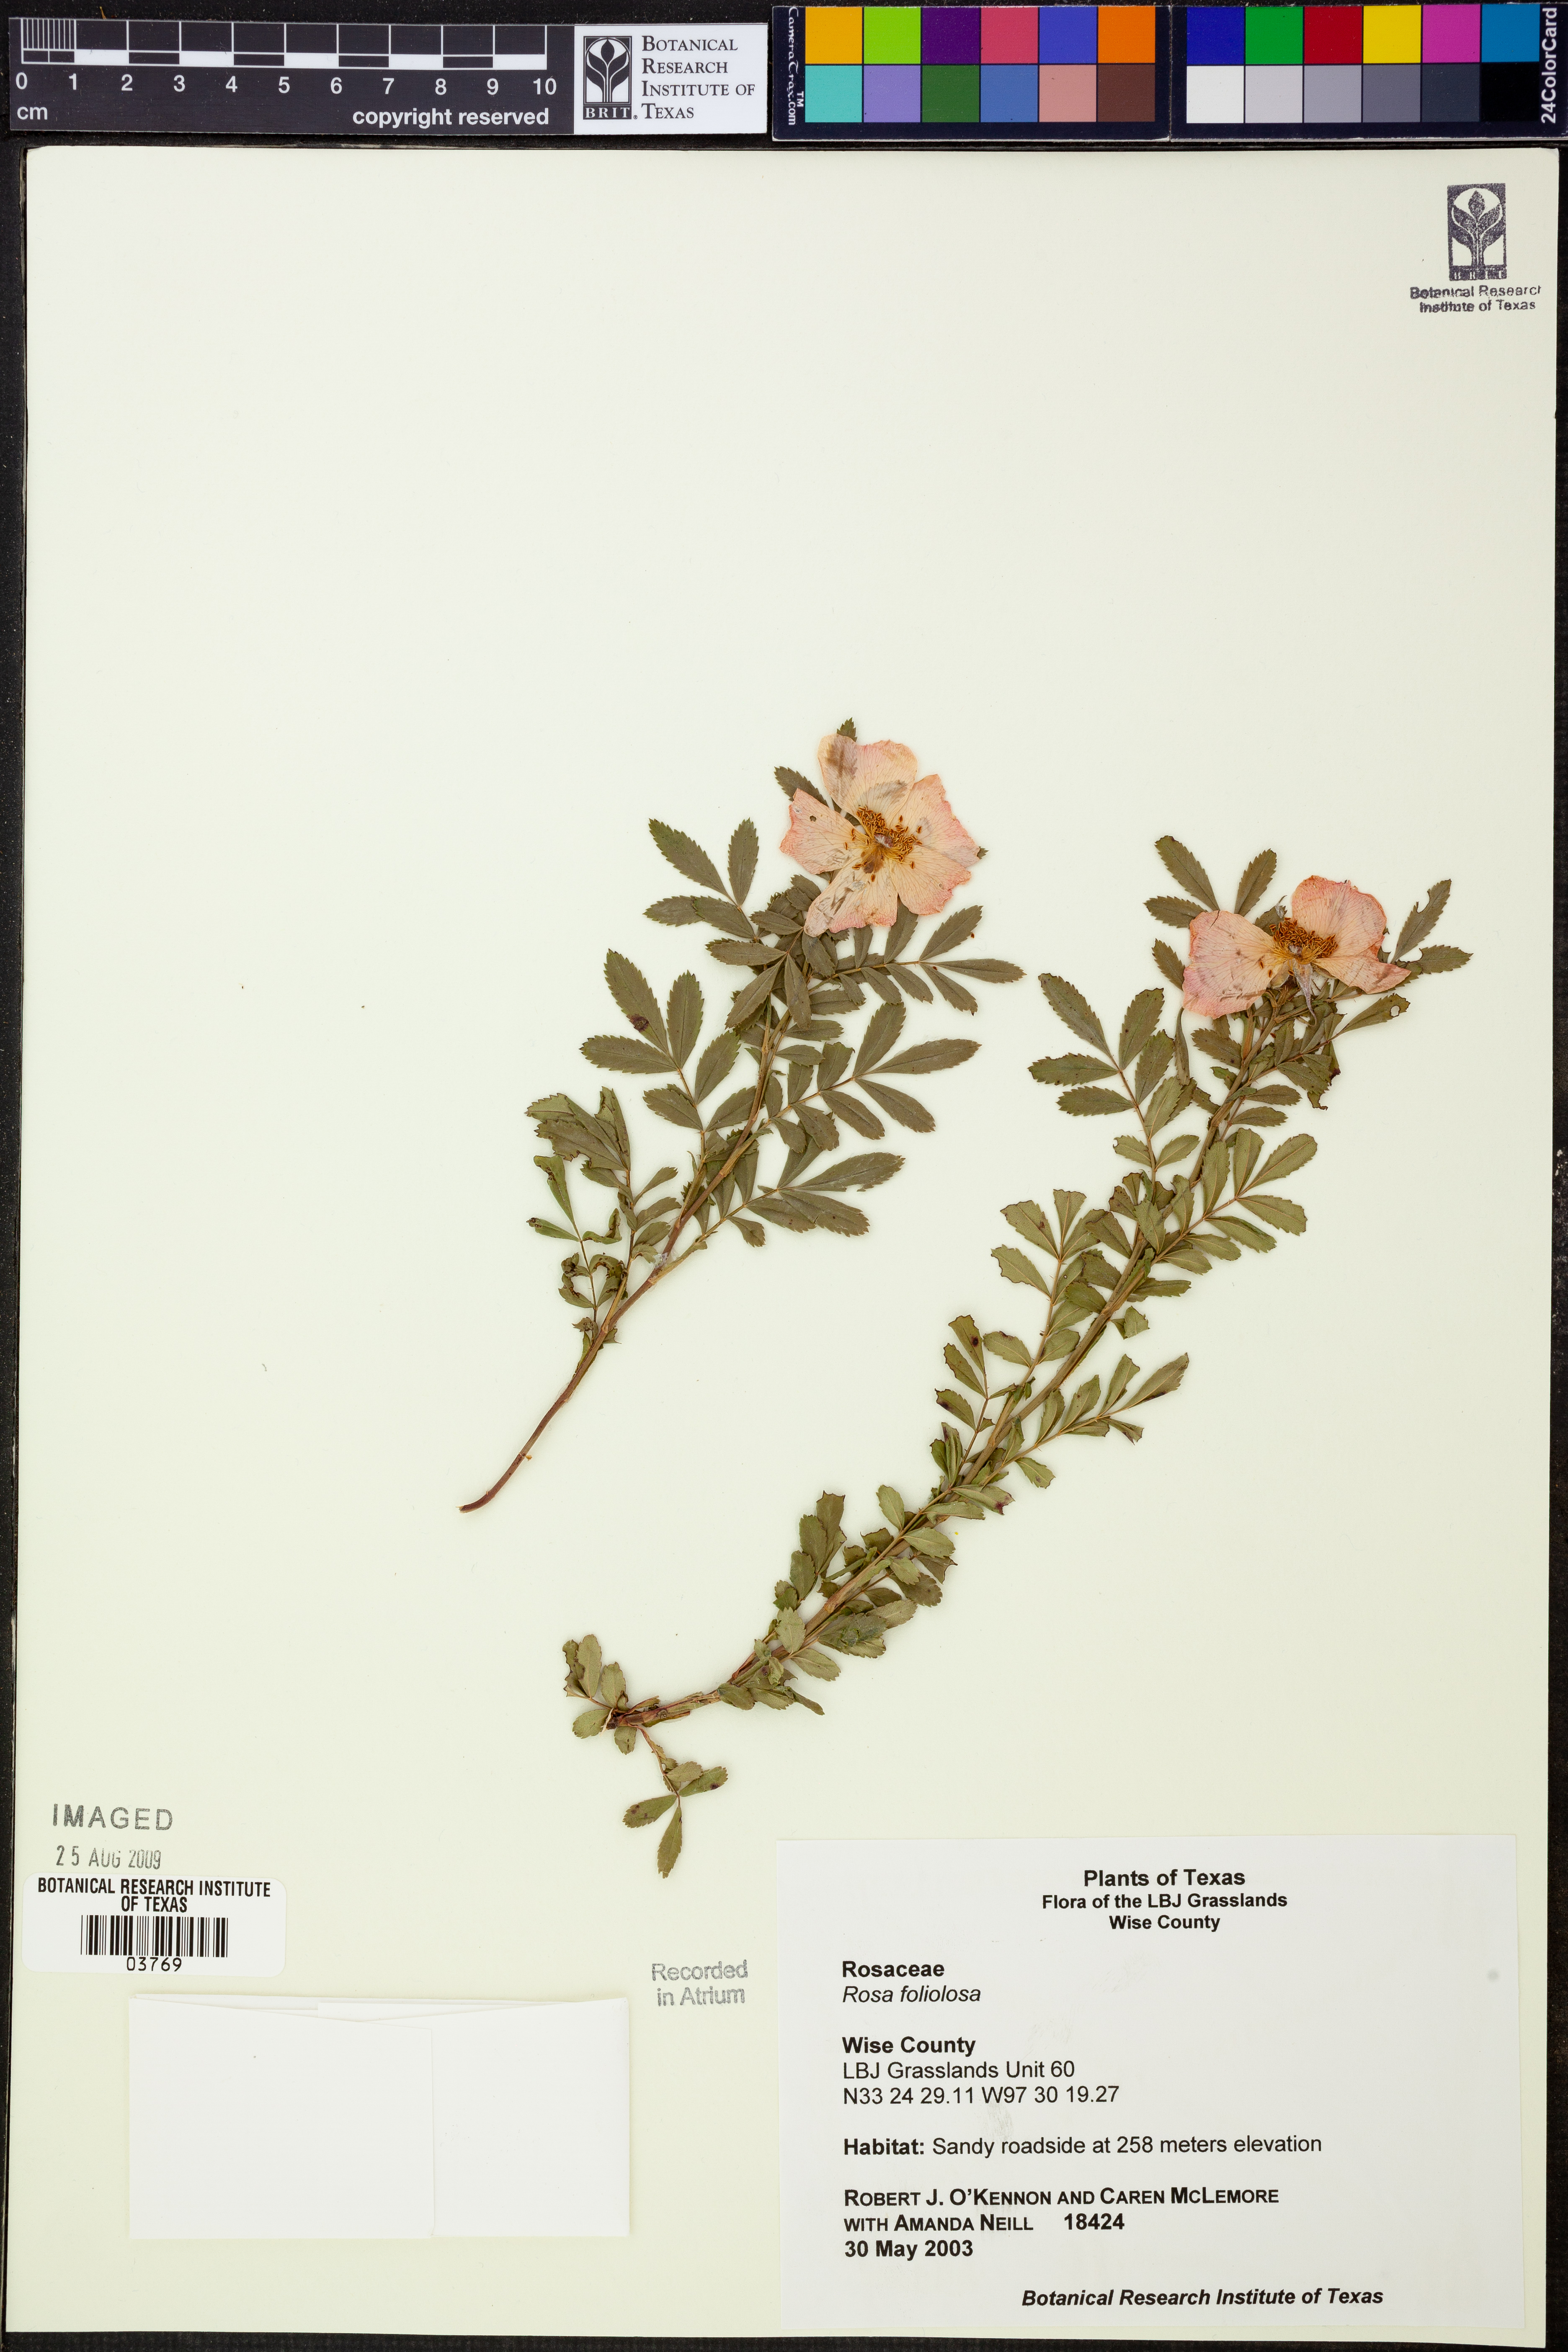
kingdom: Plantae
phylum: Tracheophyta
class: Magnoliopsida
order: Rosales
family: Rosaceae
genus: Rosa
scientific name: Rosa foliolosa
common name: White prairie rose
